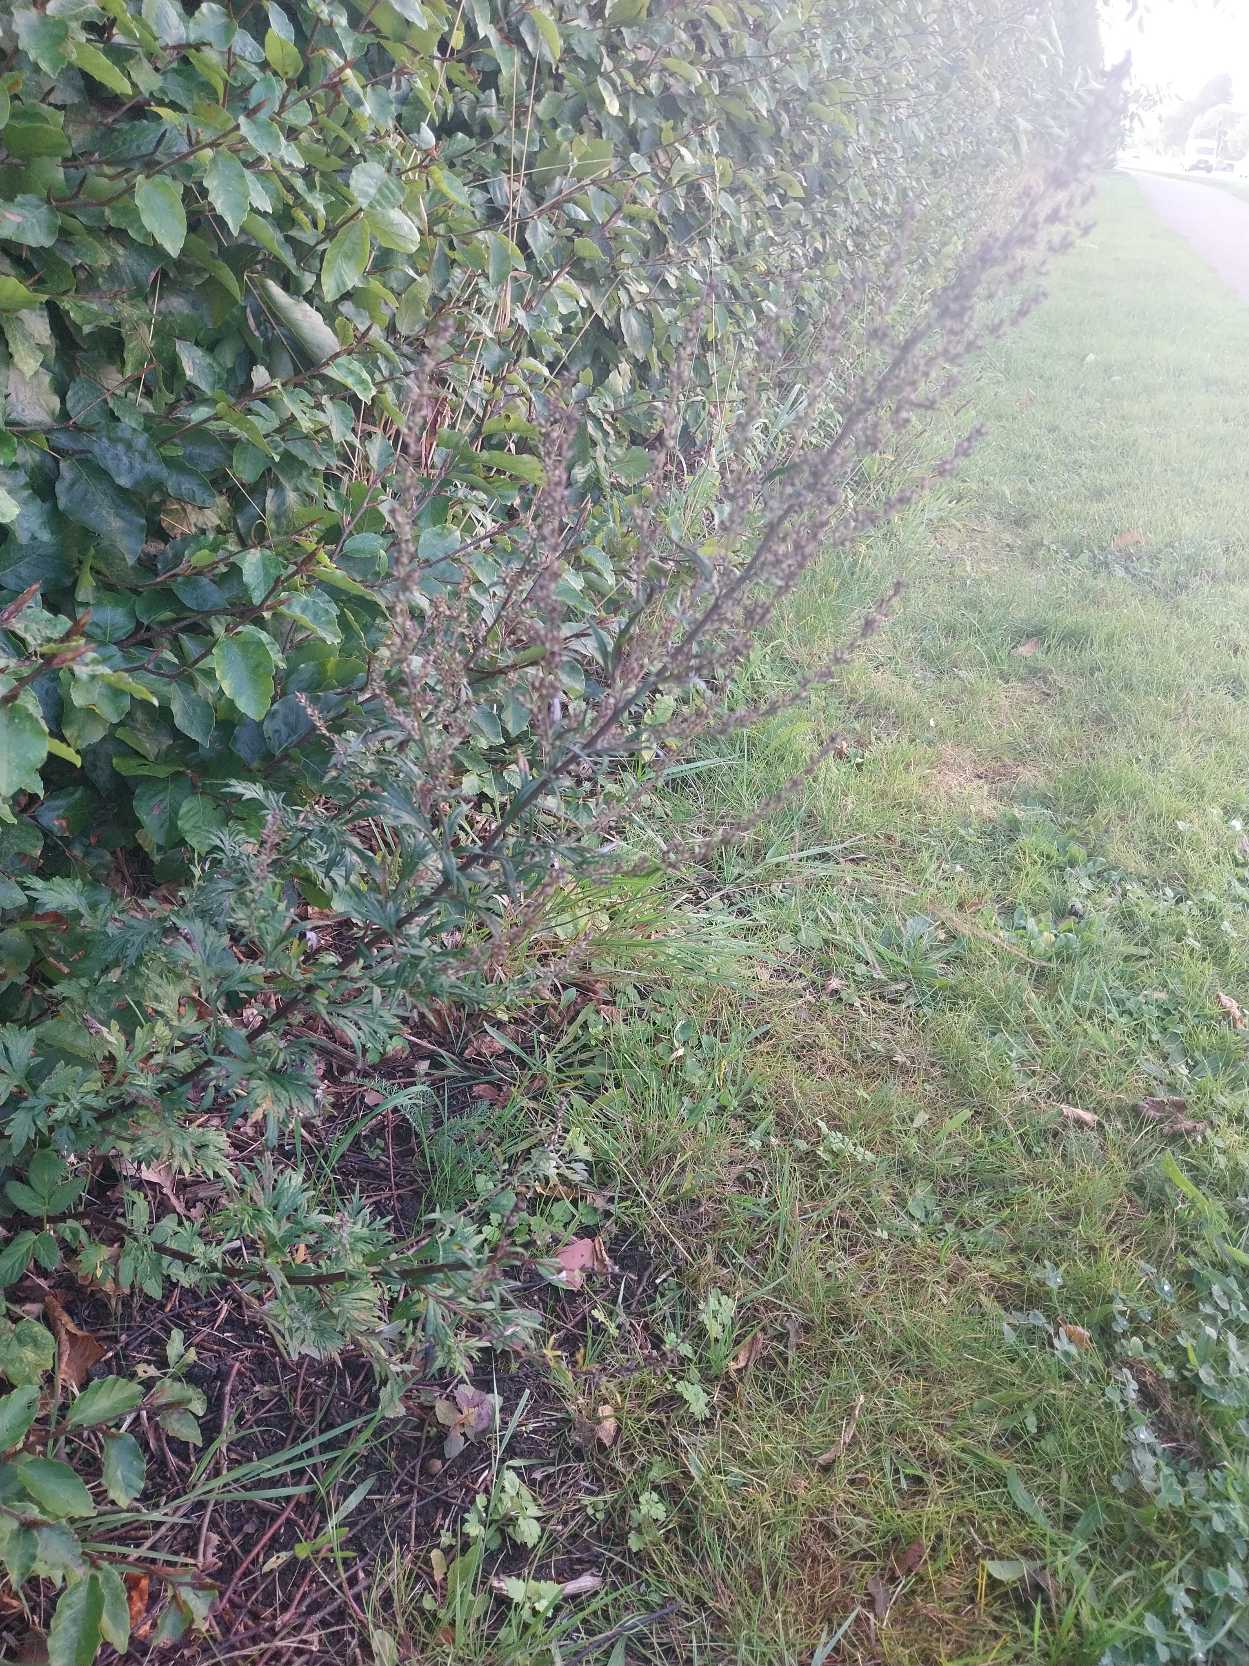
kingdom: Plantae
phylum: Tracheophyta
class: Magnoliopsida
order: Asterales
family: Asteraceae
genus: Artemisia
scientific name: Artemisia vulgaris
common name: Grå-bynke
